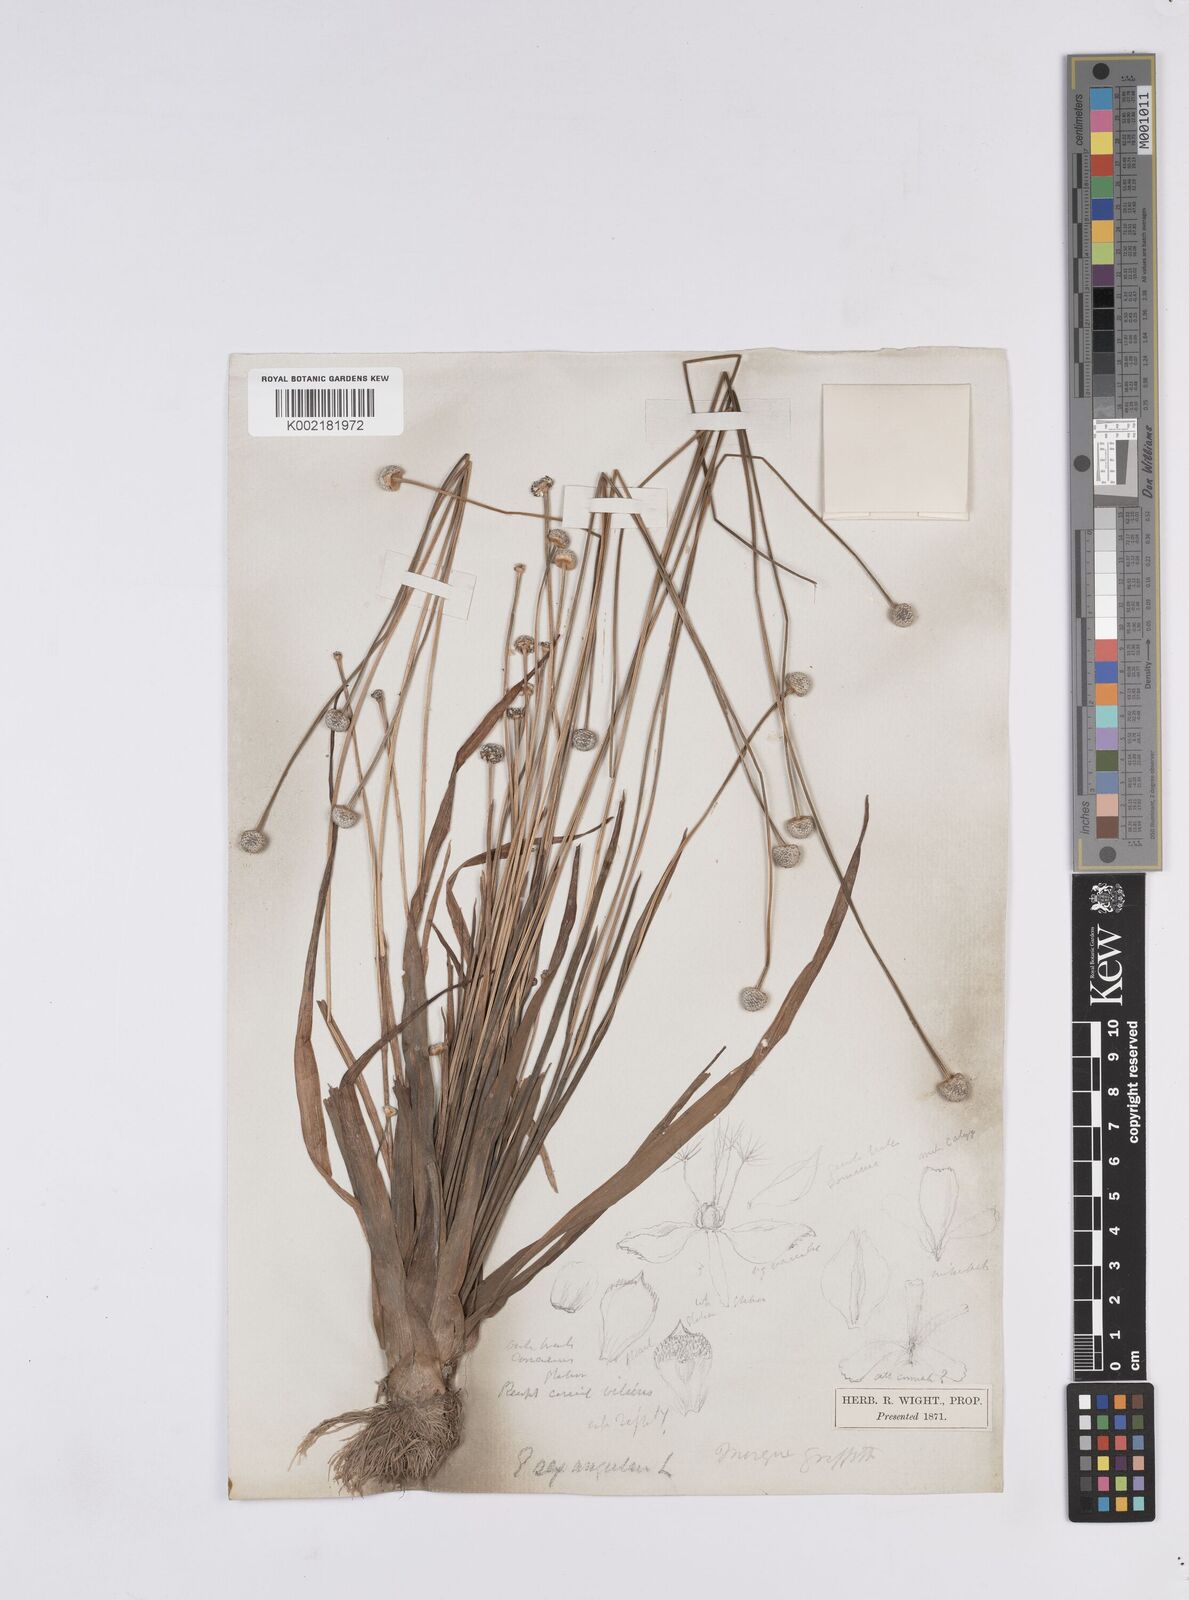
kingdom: Plantae
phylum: Tracheophyta
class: Liliopsida
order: Poales
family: Eriocaulaceae
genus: Eriocaulon
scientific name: Eriocaulon sexangulare
